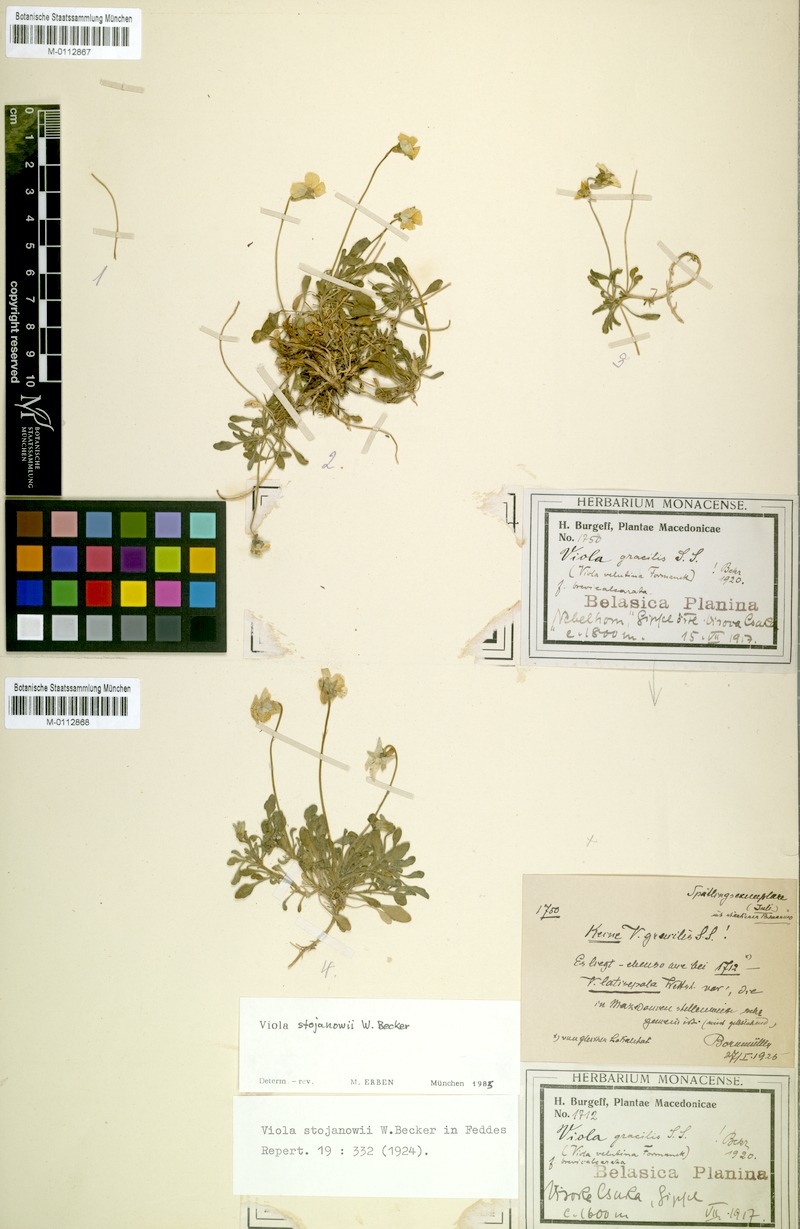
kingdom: Plantae
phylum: Tracheophyta
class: Magnoliopsida
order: Malpighiales
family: Violaceae
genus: Viola
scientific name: Viola stojanowii
